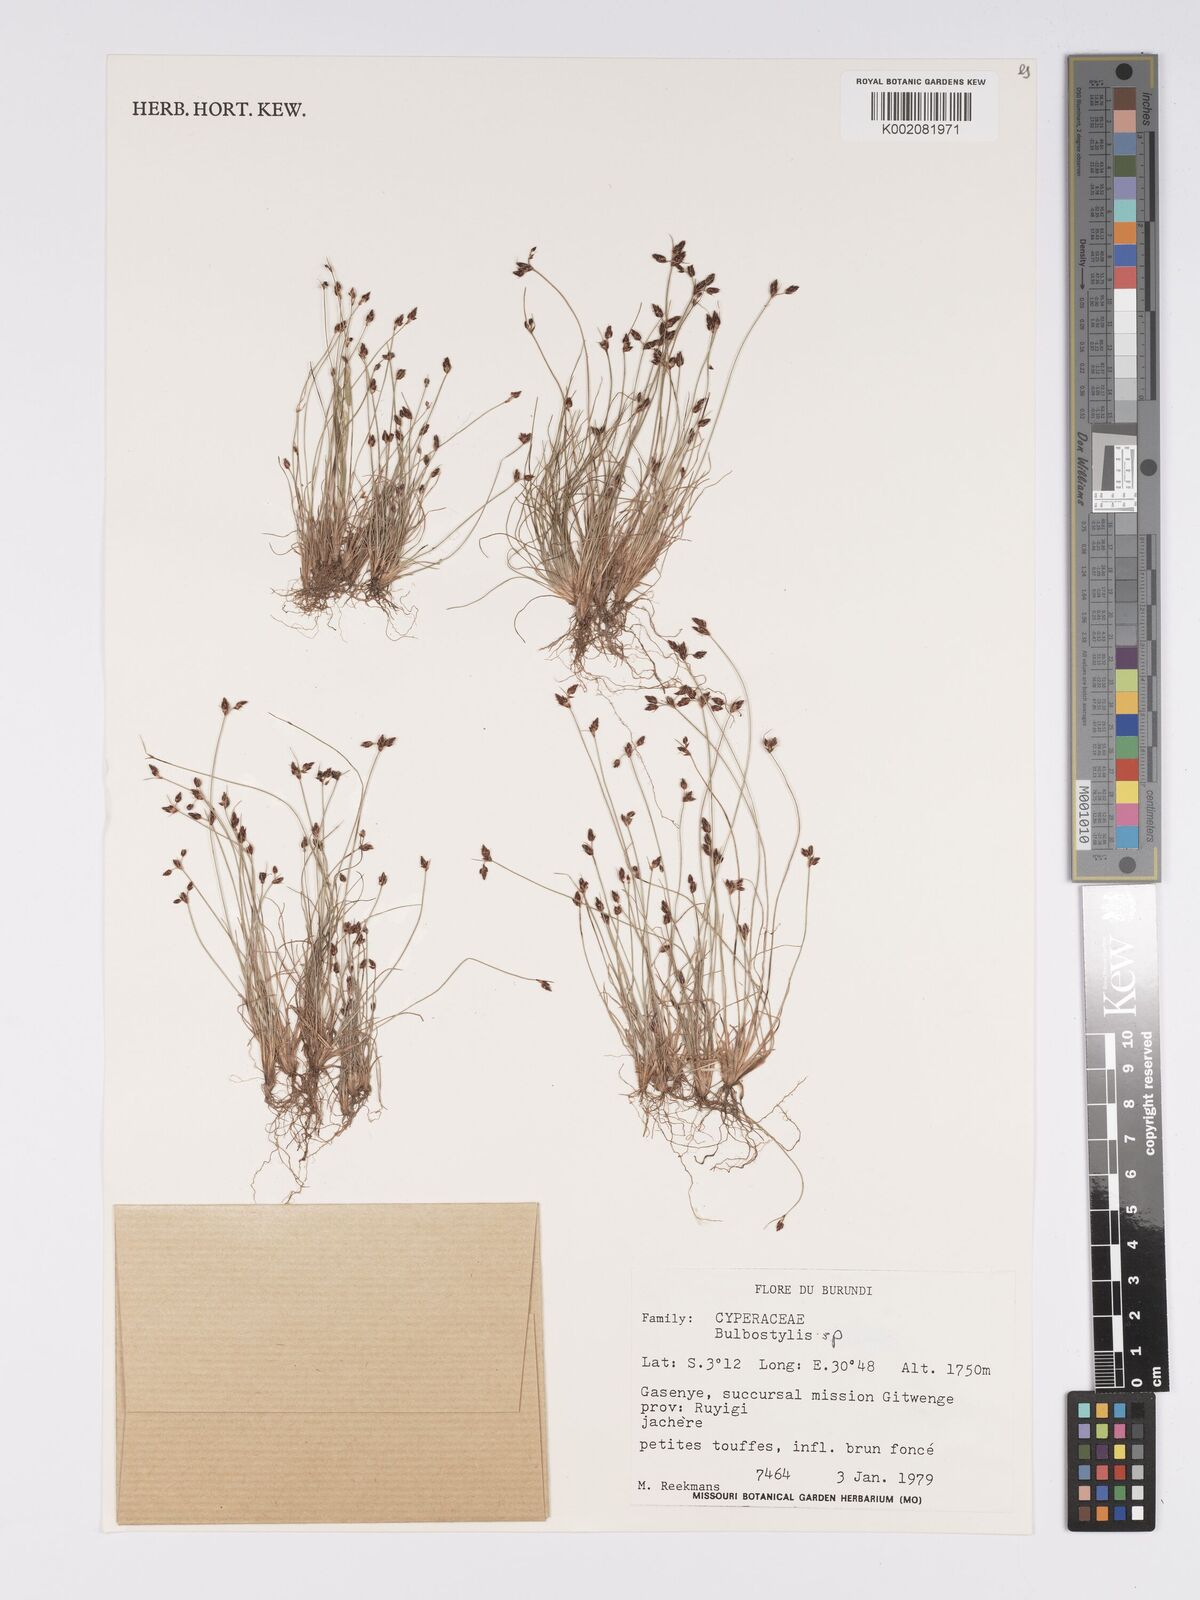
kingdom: Plantae
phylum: Tracheophyta
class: Magnoliopsida
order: Asterales
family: Asteraceae
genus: Bulbostylis
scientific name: Bulbostylis
